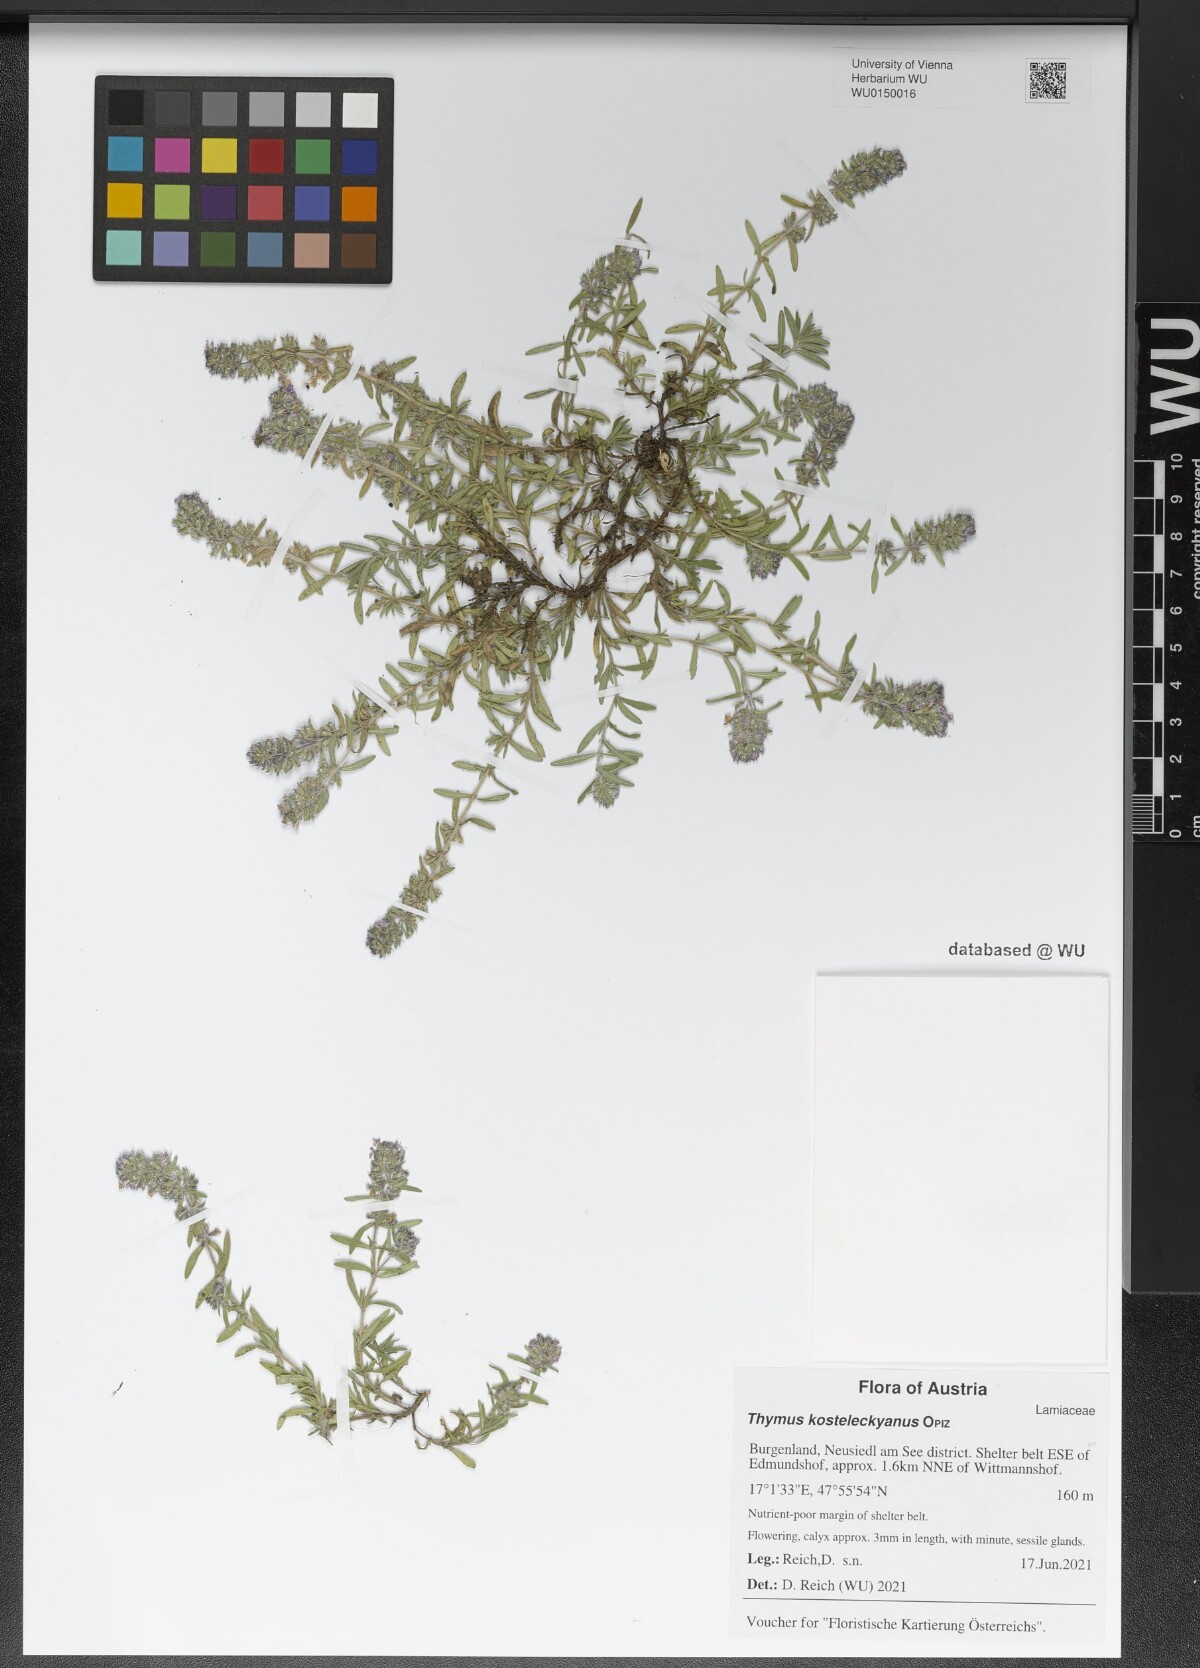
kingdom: Plantae
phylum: Tracheophyta
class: Magnoliopsida
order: Lamiales
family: Lamiaceae
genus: Thymus
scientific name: Thymus kosteleckyanus
